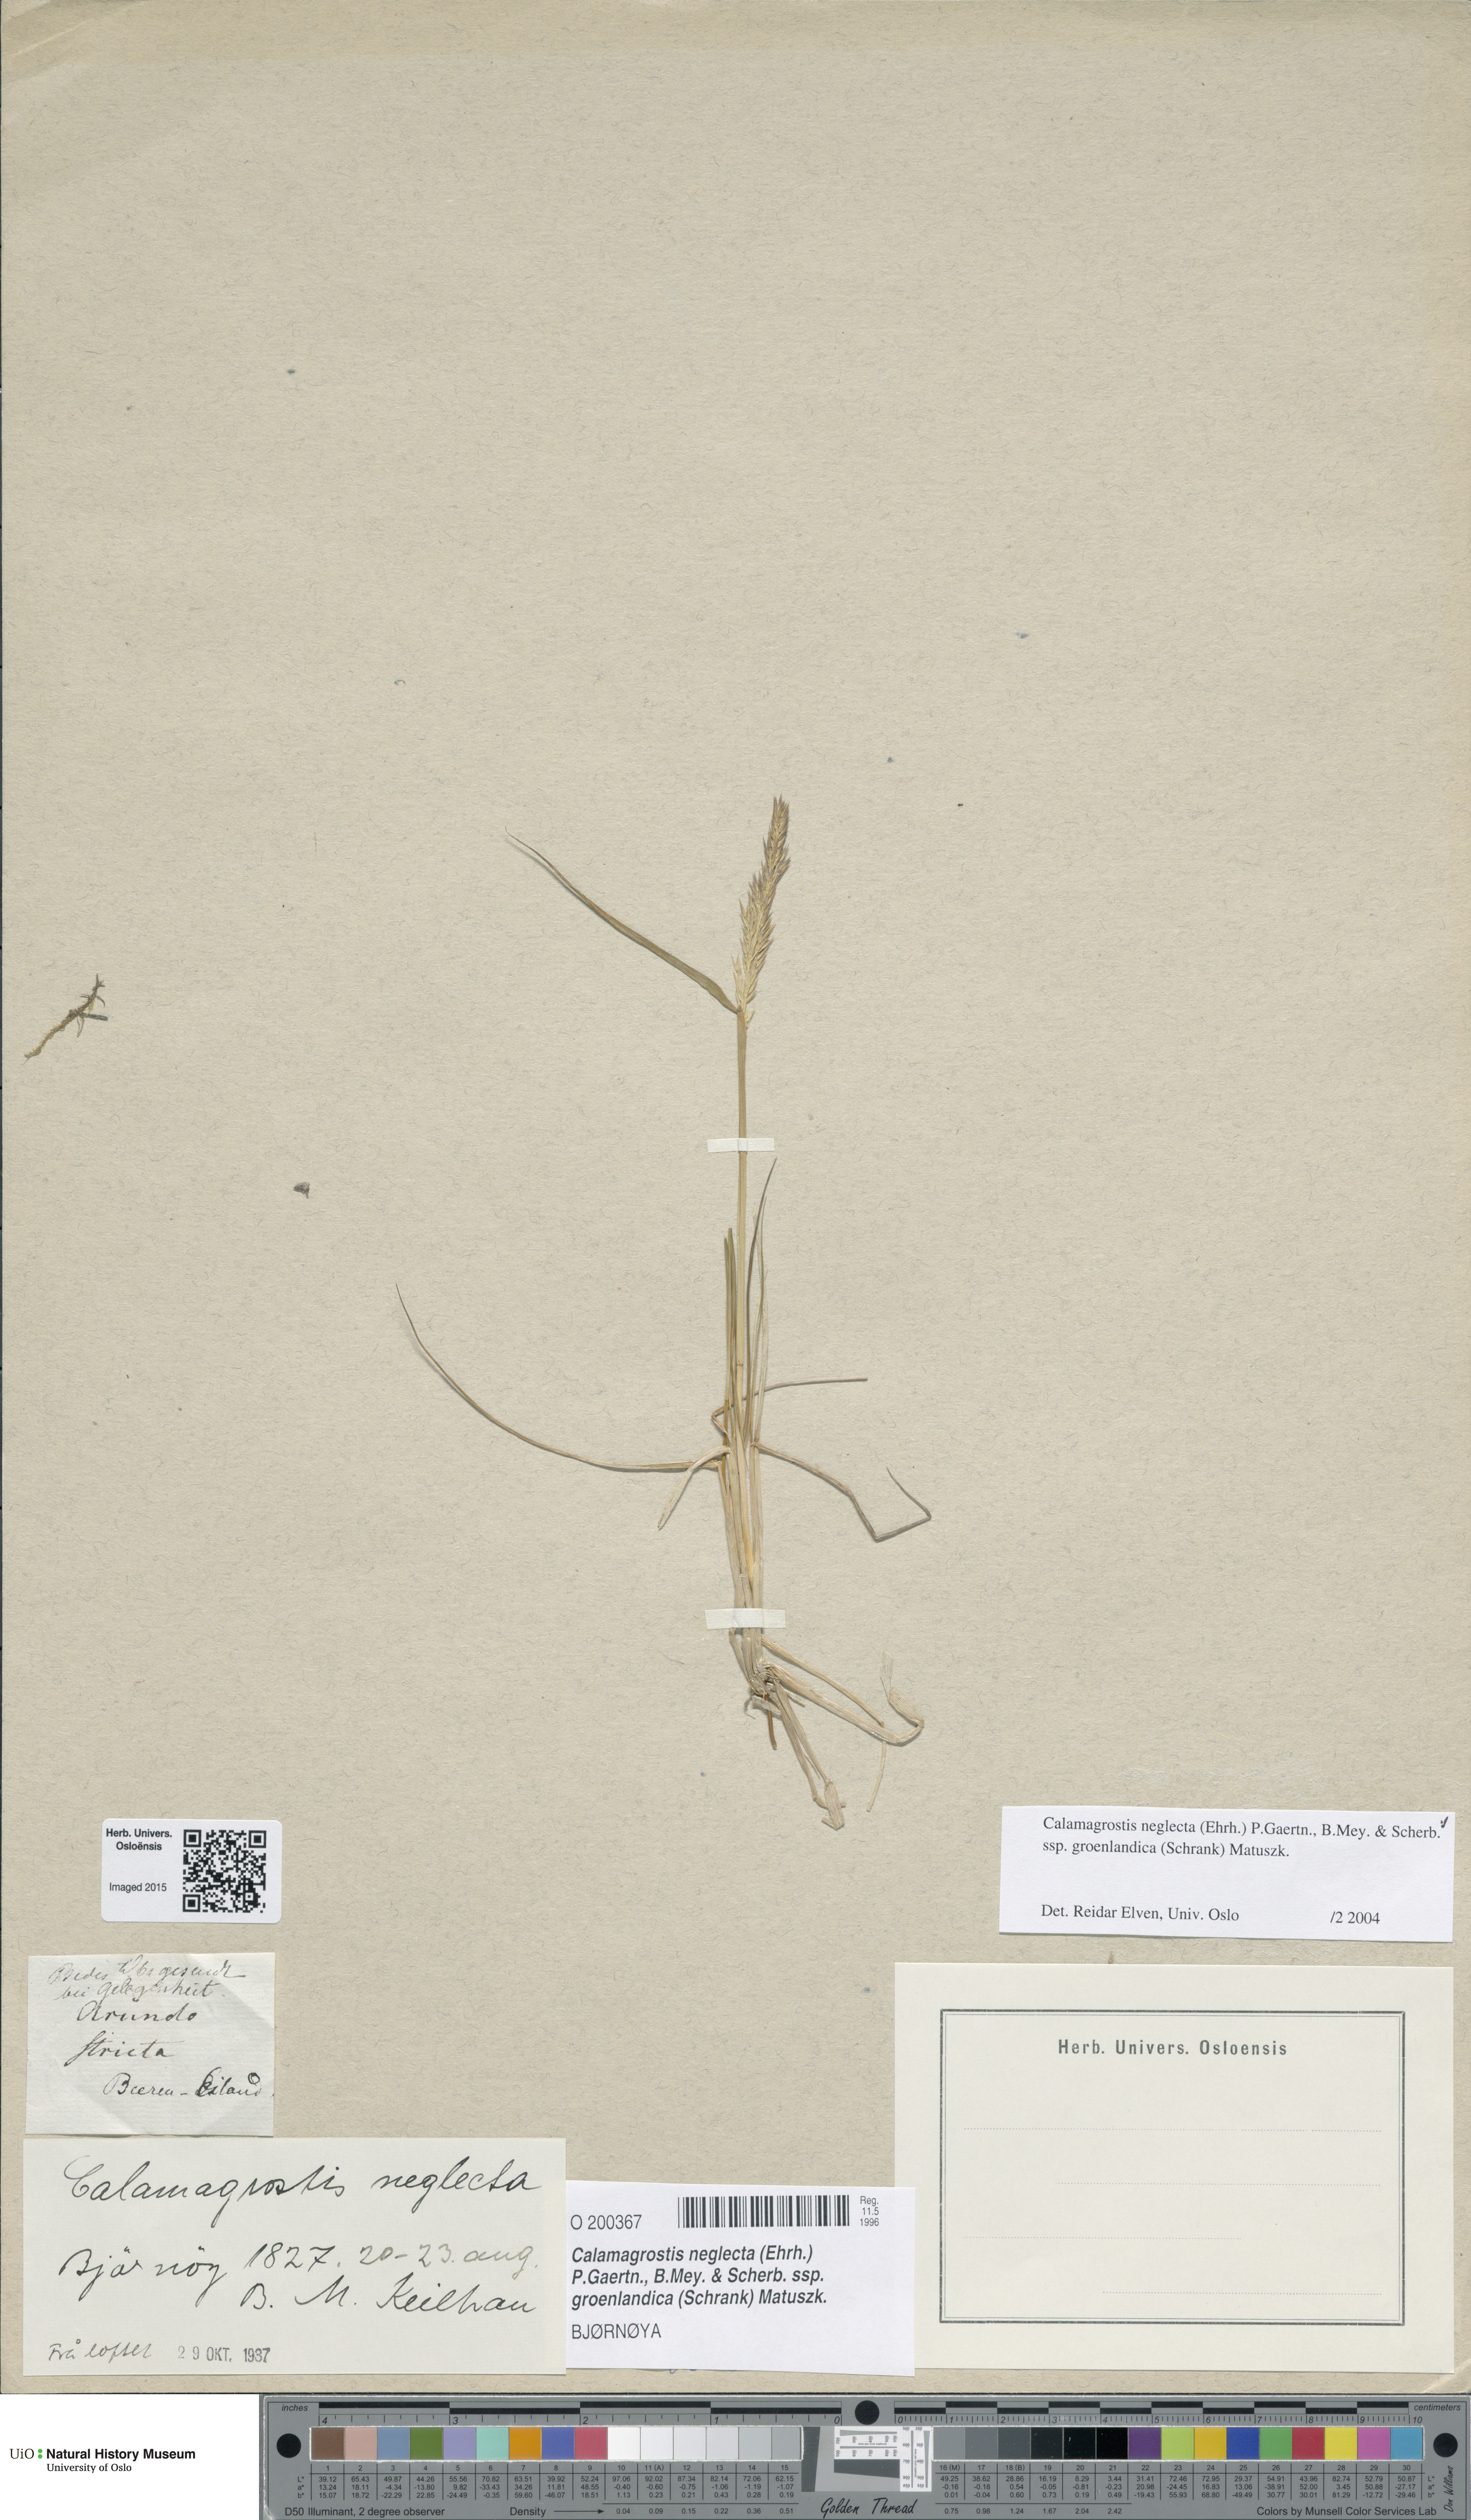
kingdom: Plantae
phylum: Tracheophyta
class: Liliopsida
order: Poales
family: Poaceae
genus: Calamagrostis
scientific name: Calamagrostis stricta
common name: Narrow small-reed
